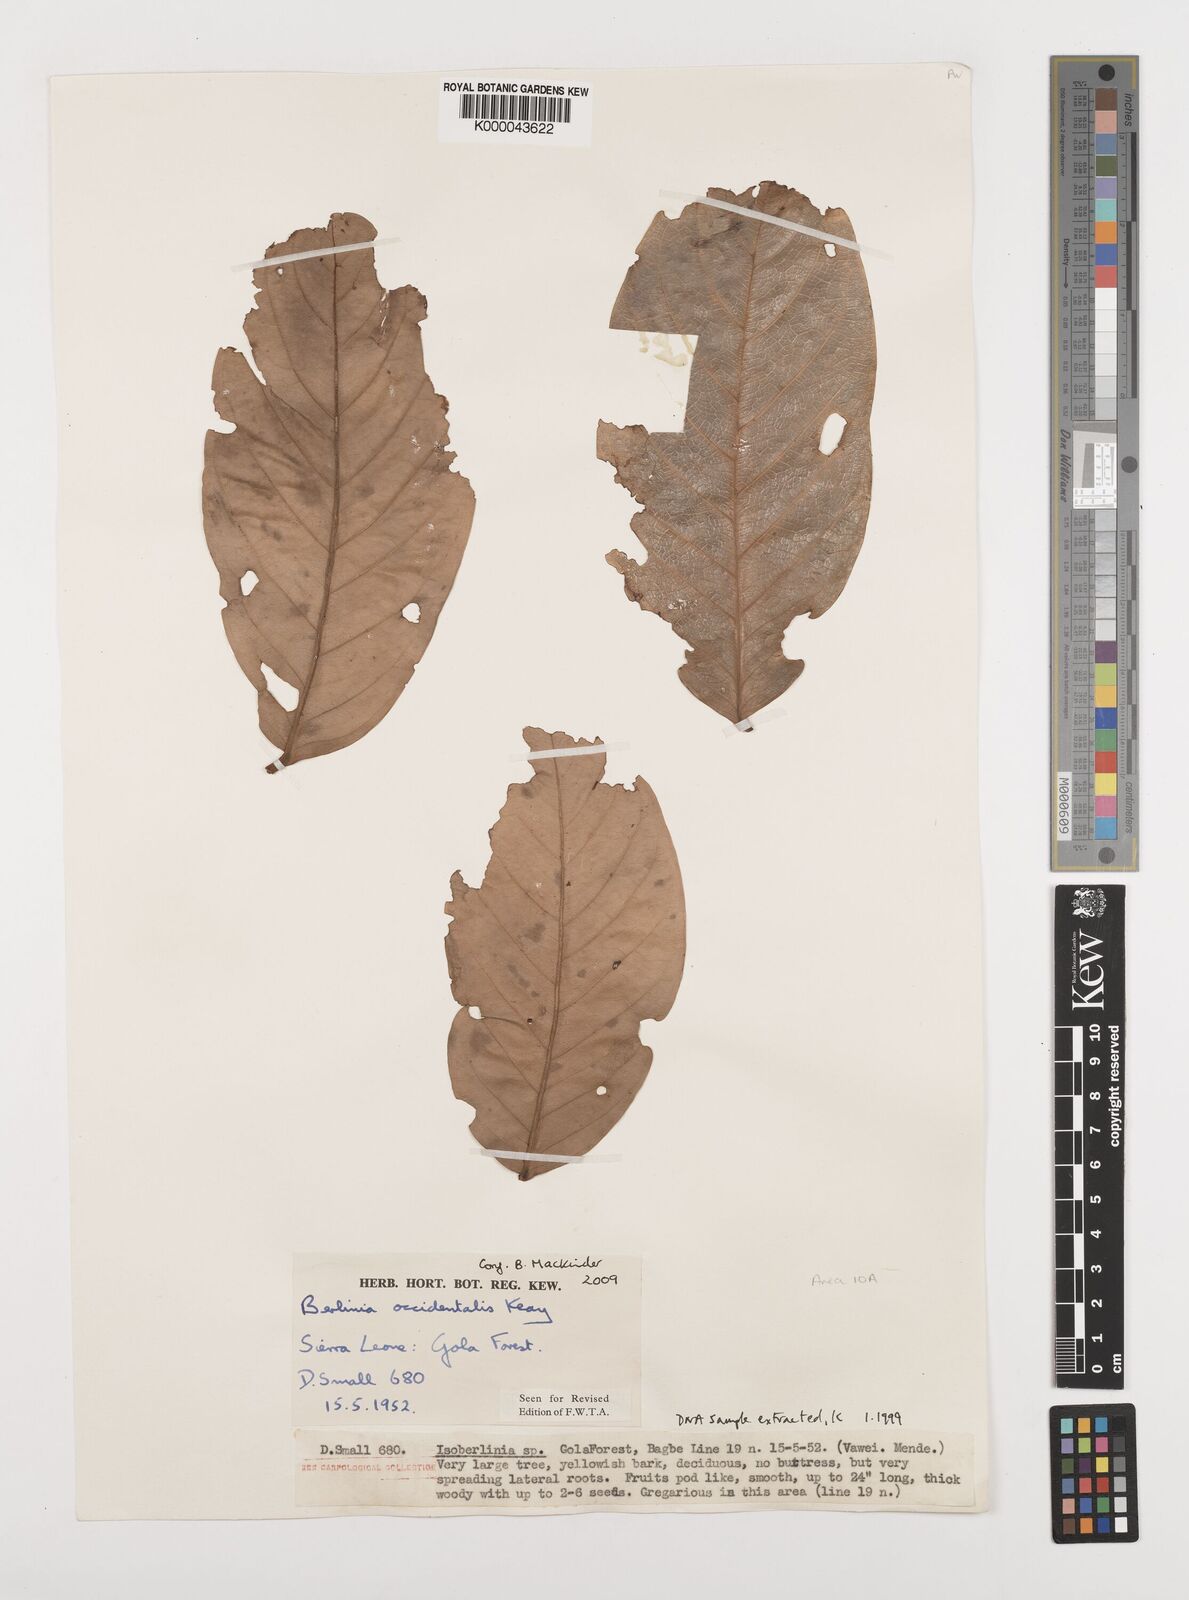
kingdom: Plantae
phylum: Tracheophyta
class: Magnoliopsida
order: Fabales
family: Fabaceae
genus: Berlinia
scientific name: Berlinia occidentalis
